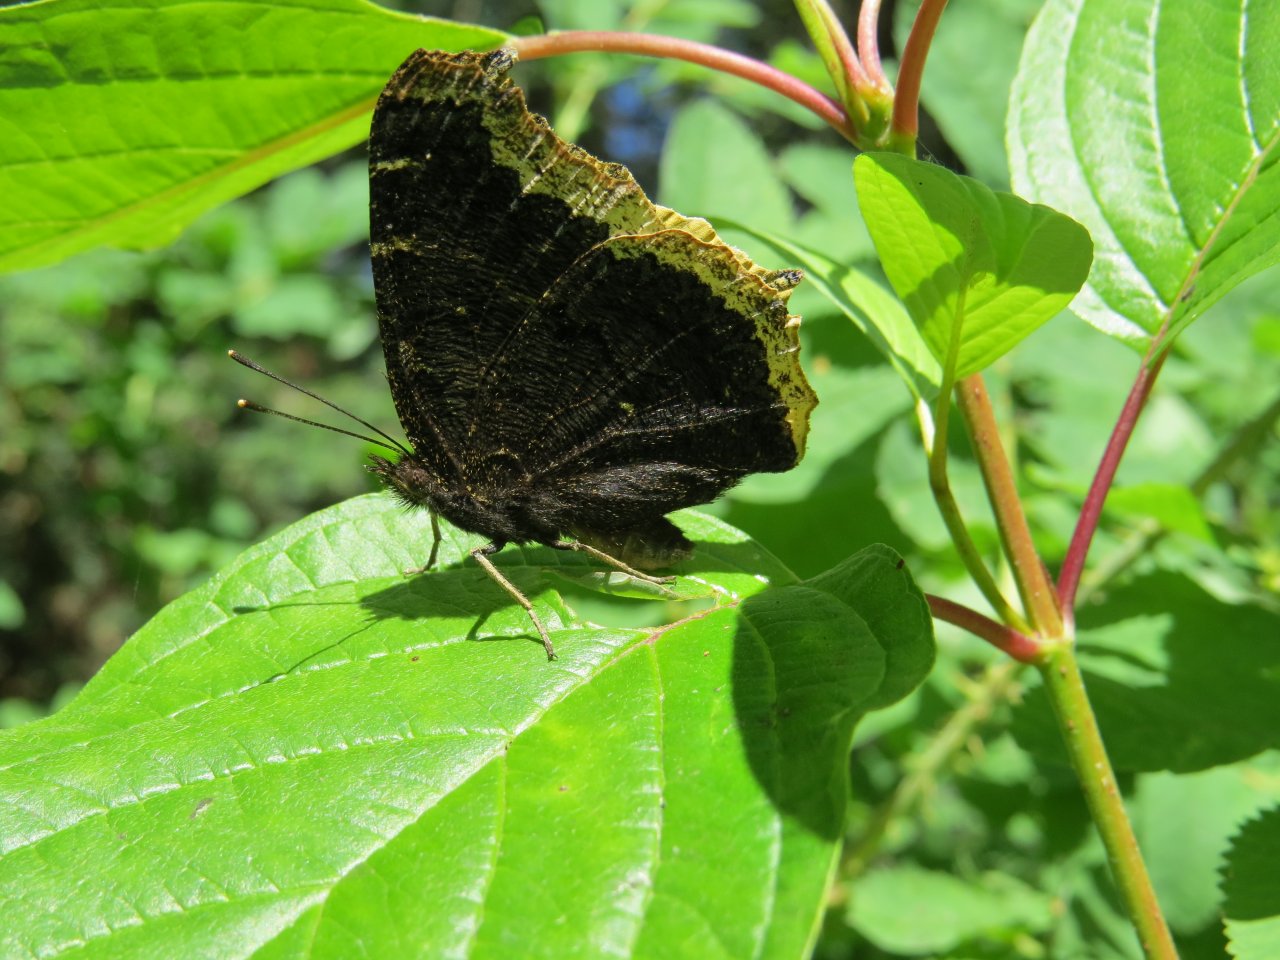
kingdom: Animalia
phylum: Arthropoda
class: Insecta
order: Lepidoptera
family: Nymphalidae
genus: Nymphalis
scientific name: Nymphalis antiopa
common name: Mourning Cloak
